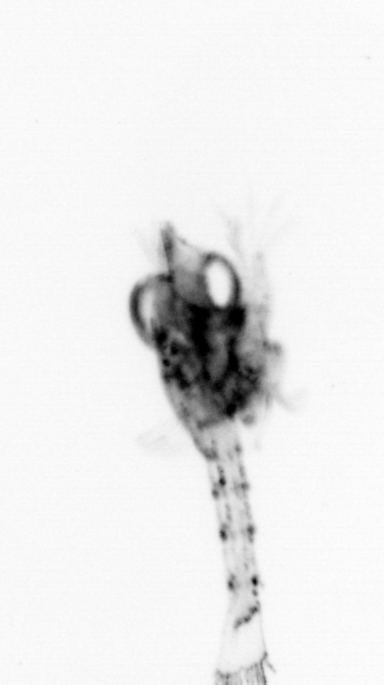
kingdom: Animalia
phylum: Arthropoda
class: Malacostraca
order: Decapoda
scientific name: Decapoda
